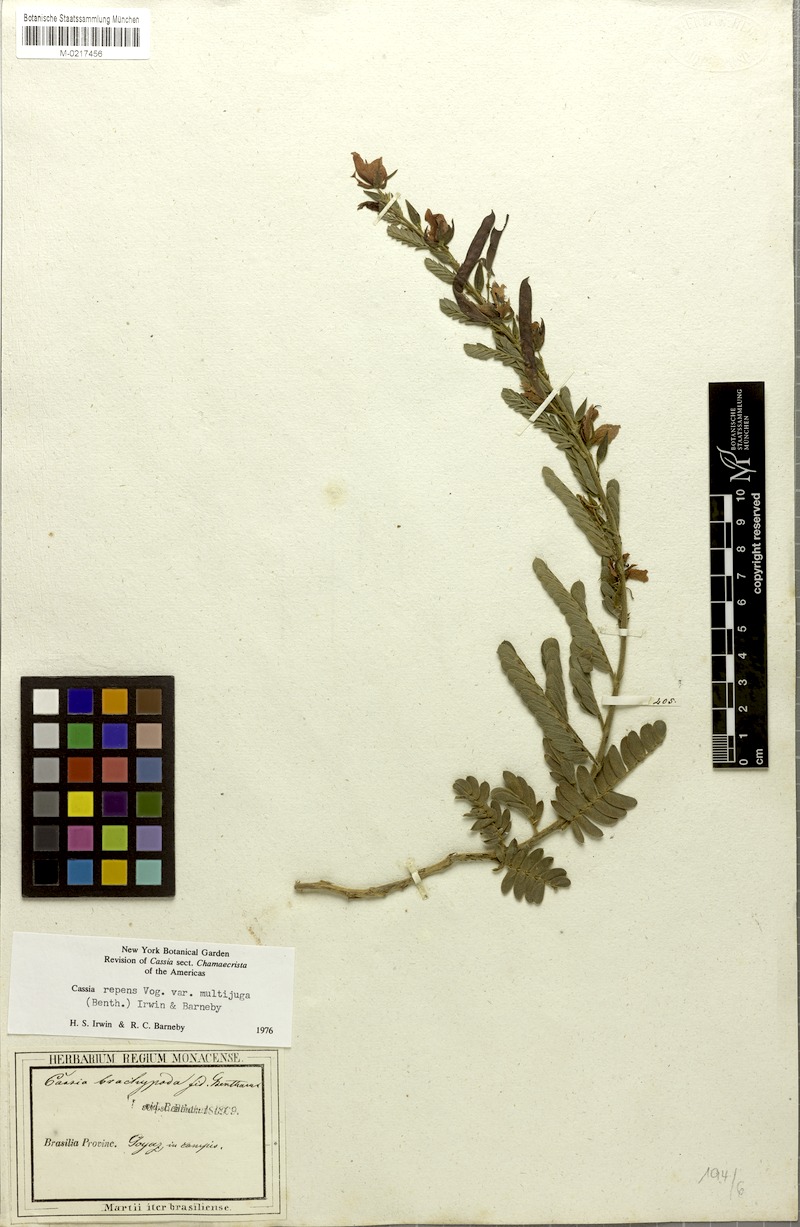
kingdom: Plantae
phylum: Tracheophyta
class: Magnoliopsida
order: Fabales
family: Fabaceae
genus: Chamaecrista
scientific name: Chamaecrista nictitans
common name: Sensitive cassia
